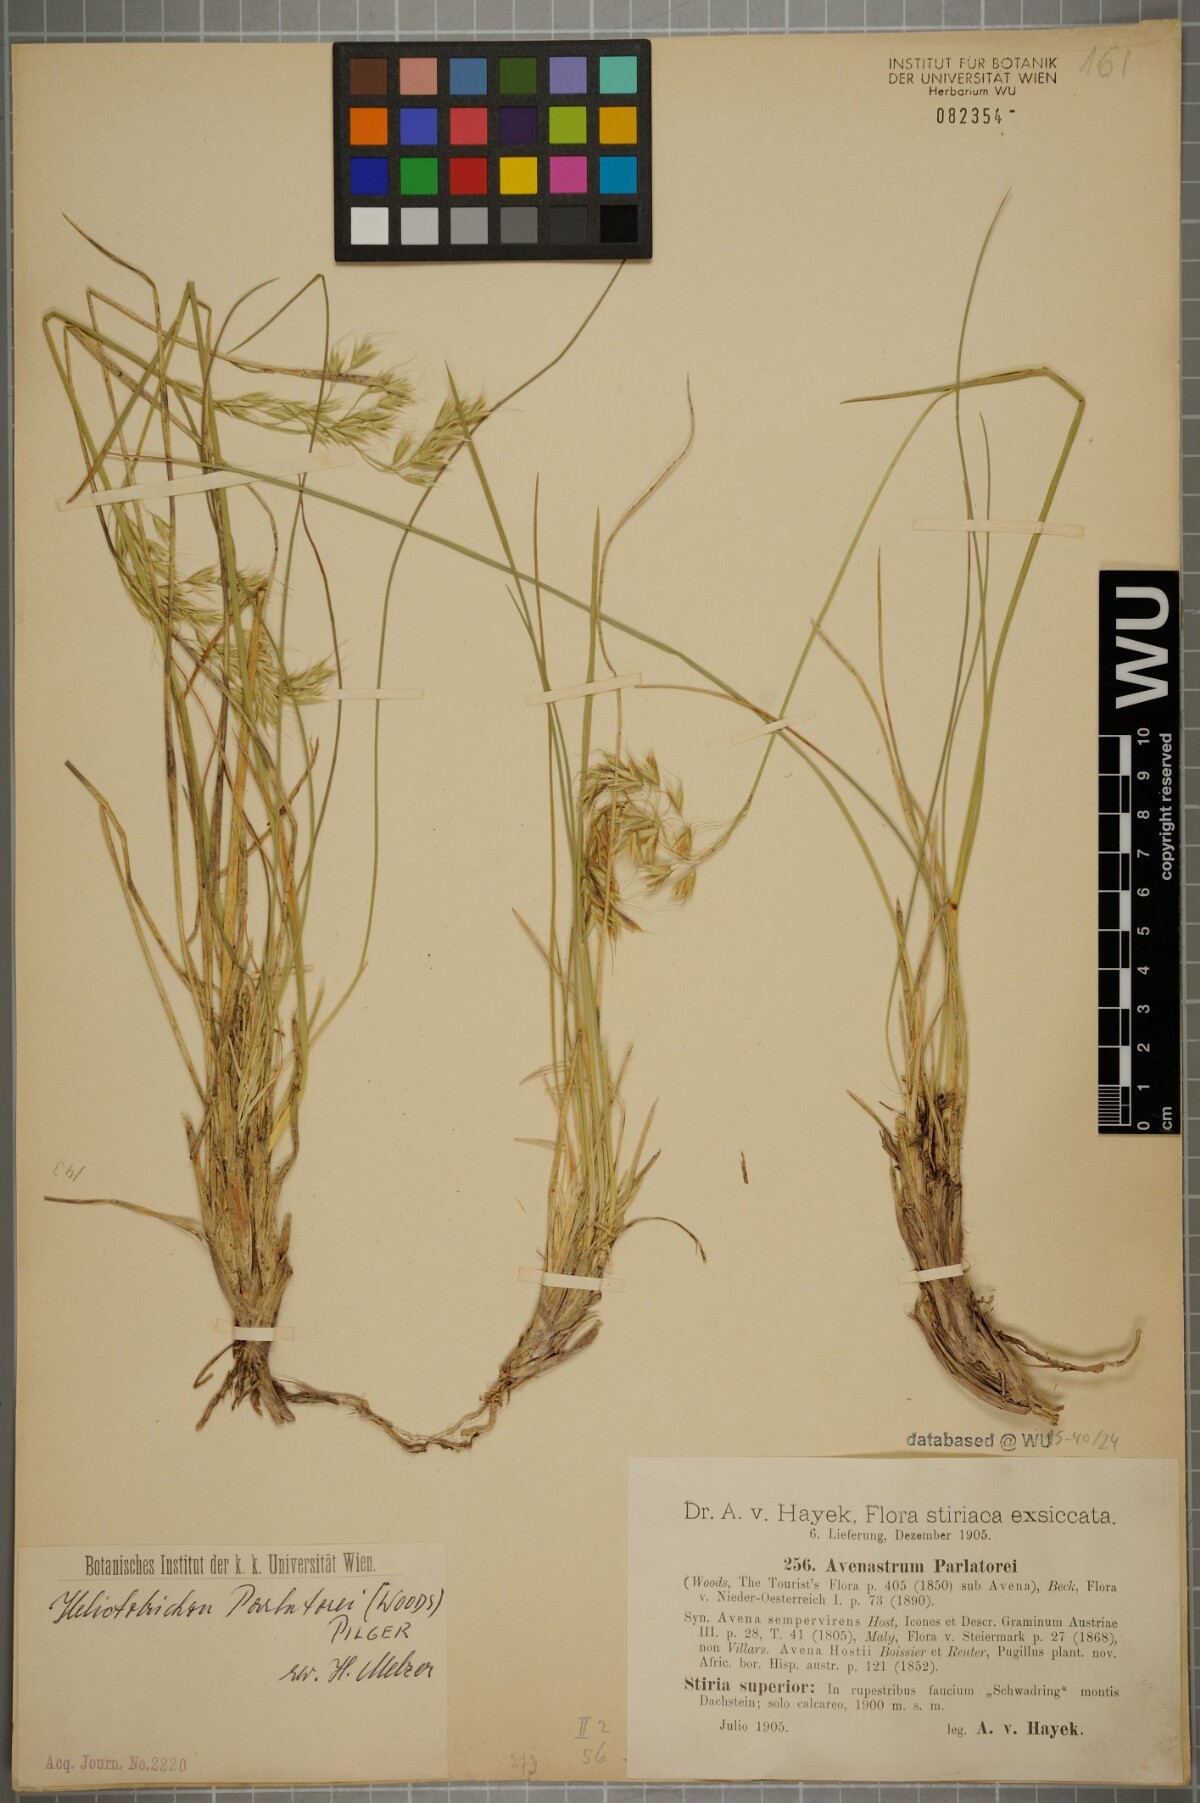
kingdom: Plantae
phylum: Tracheophyta
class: Liliopsida
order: Poales
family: Poaceae
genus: Helictotrichon
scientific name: Helictotrichon parlatorei
